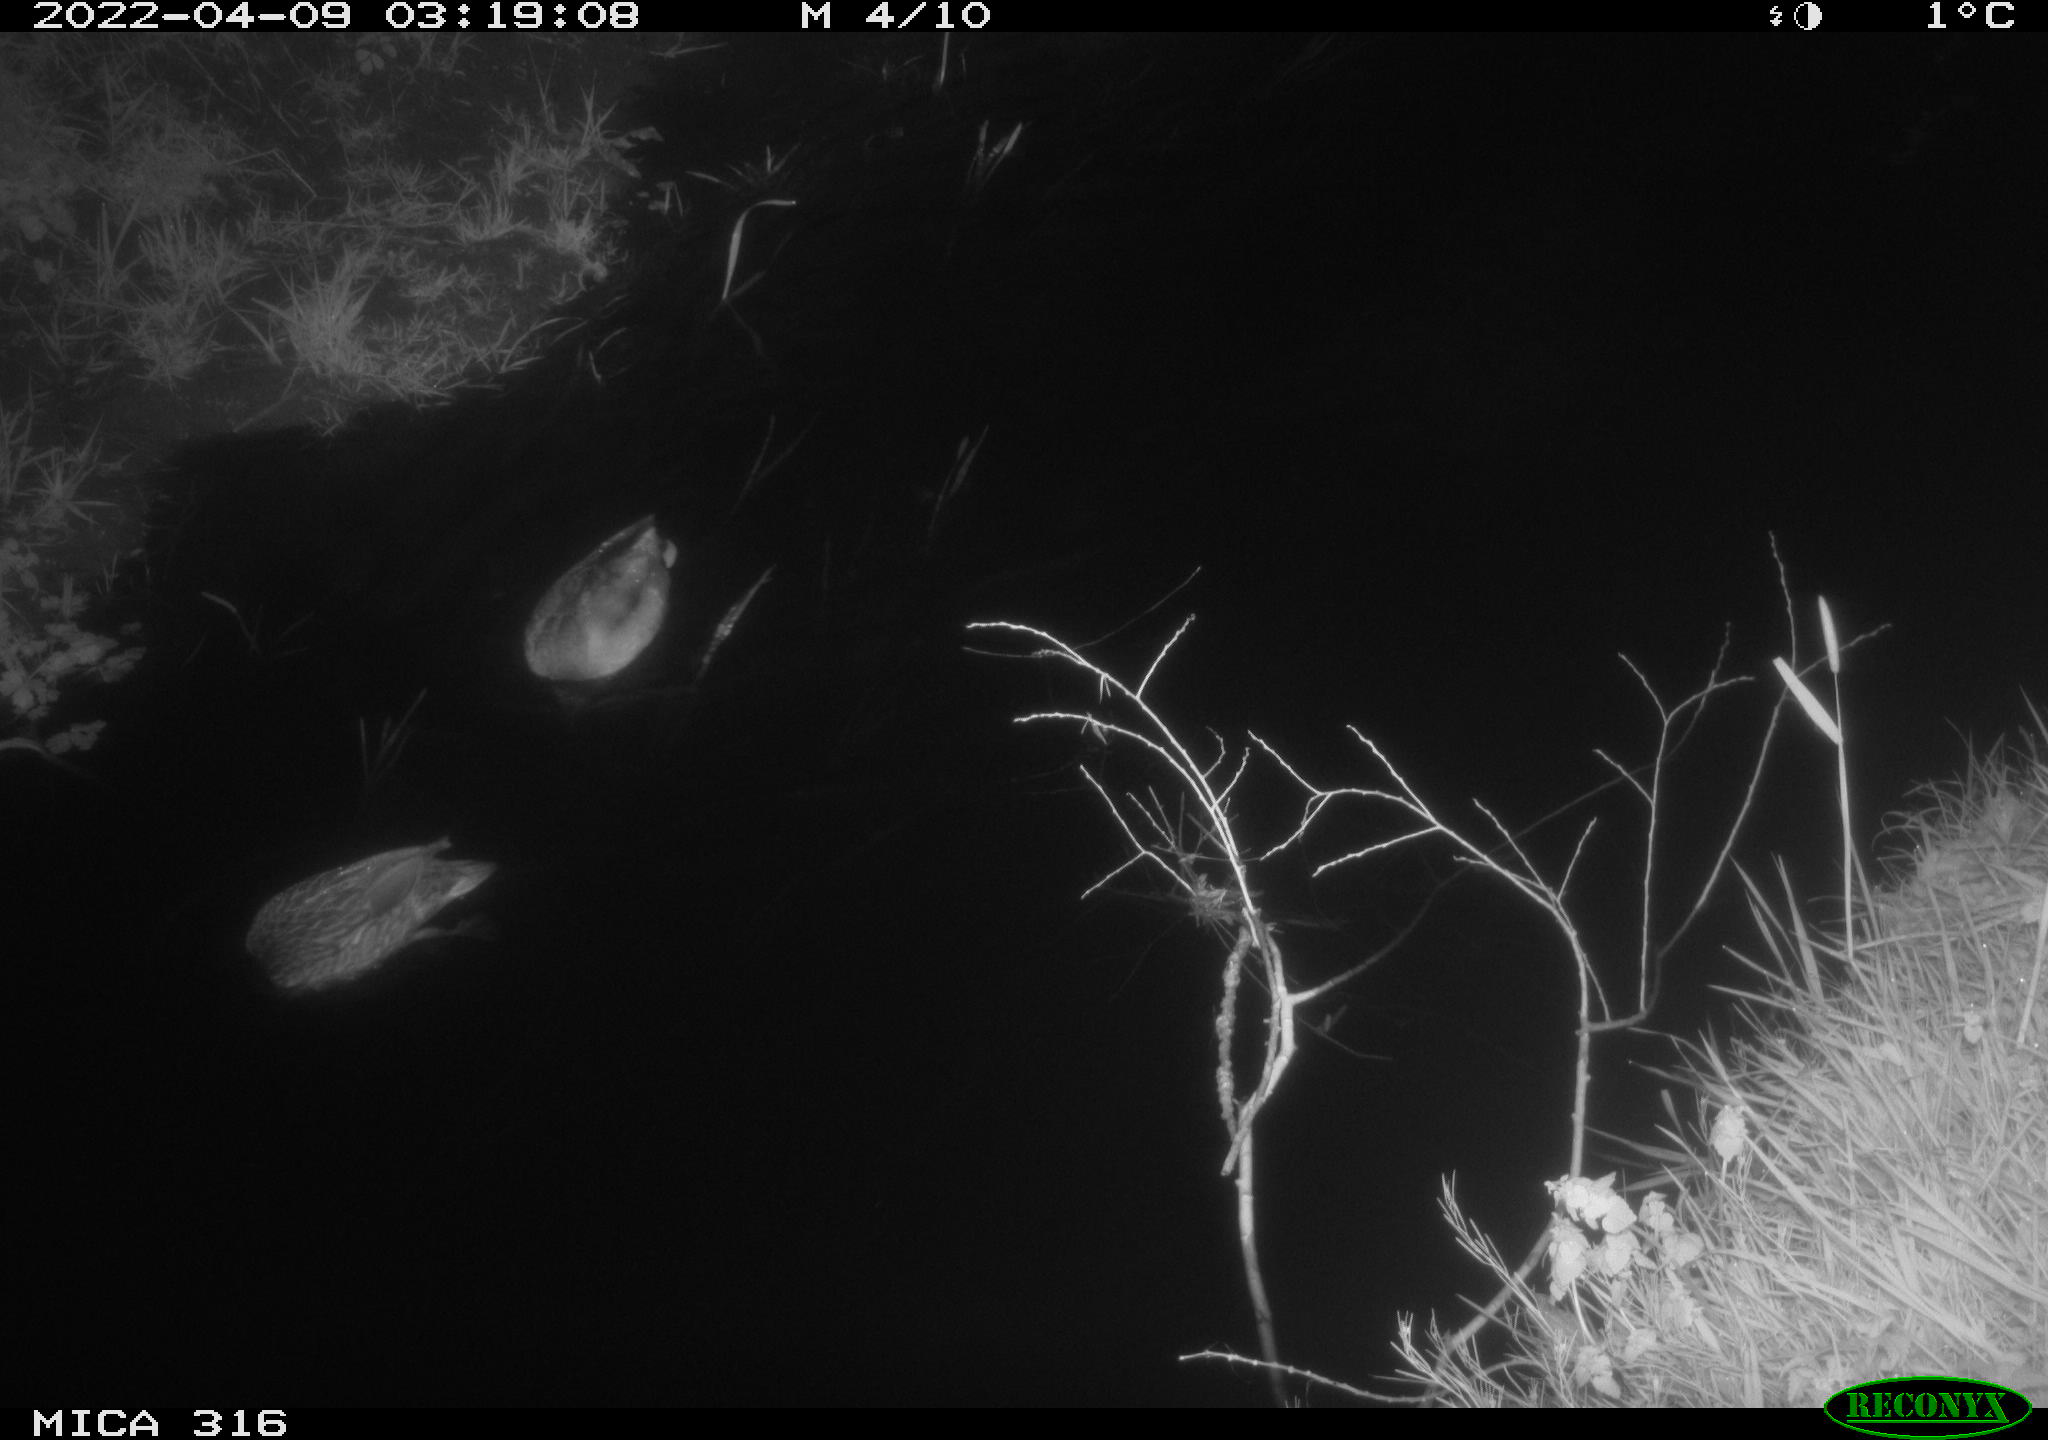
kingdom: Animalia
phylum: Chordata
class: Aves
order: Anseriformes
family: Anatidae
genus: Anas
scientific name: Anas platyrhynchos
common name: Mallard
